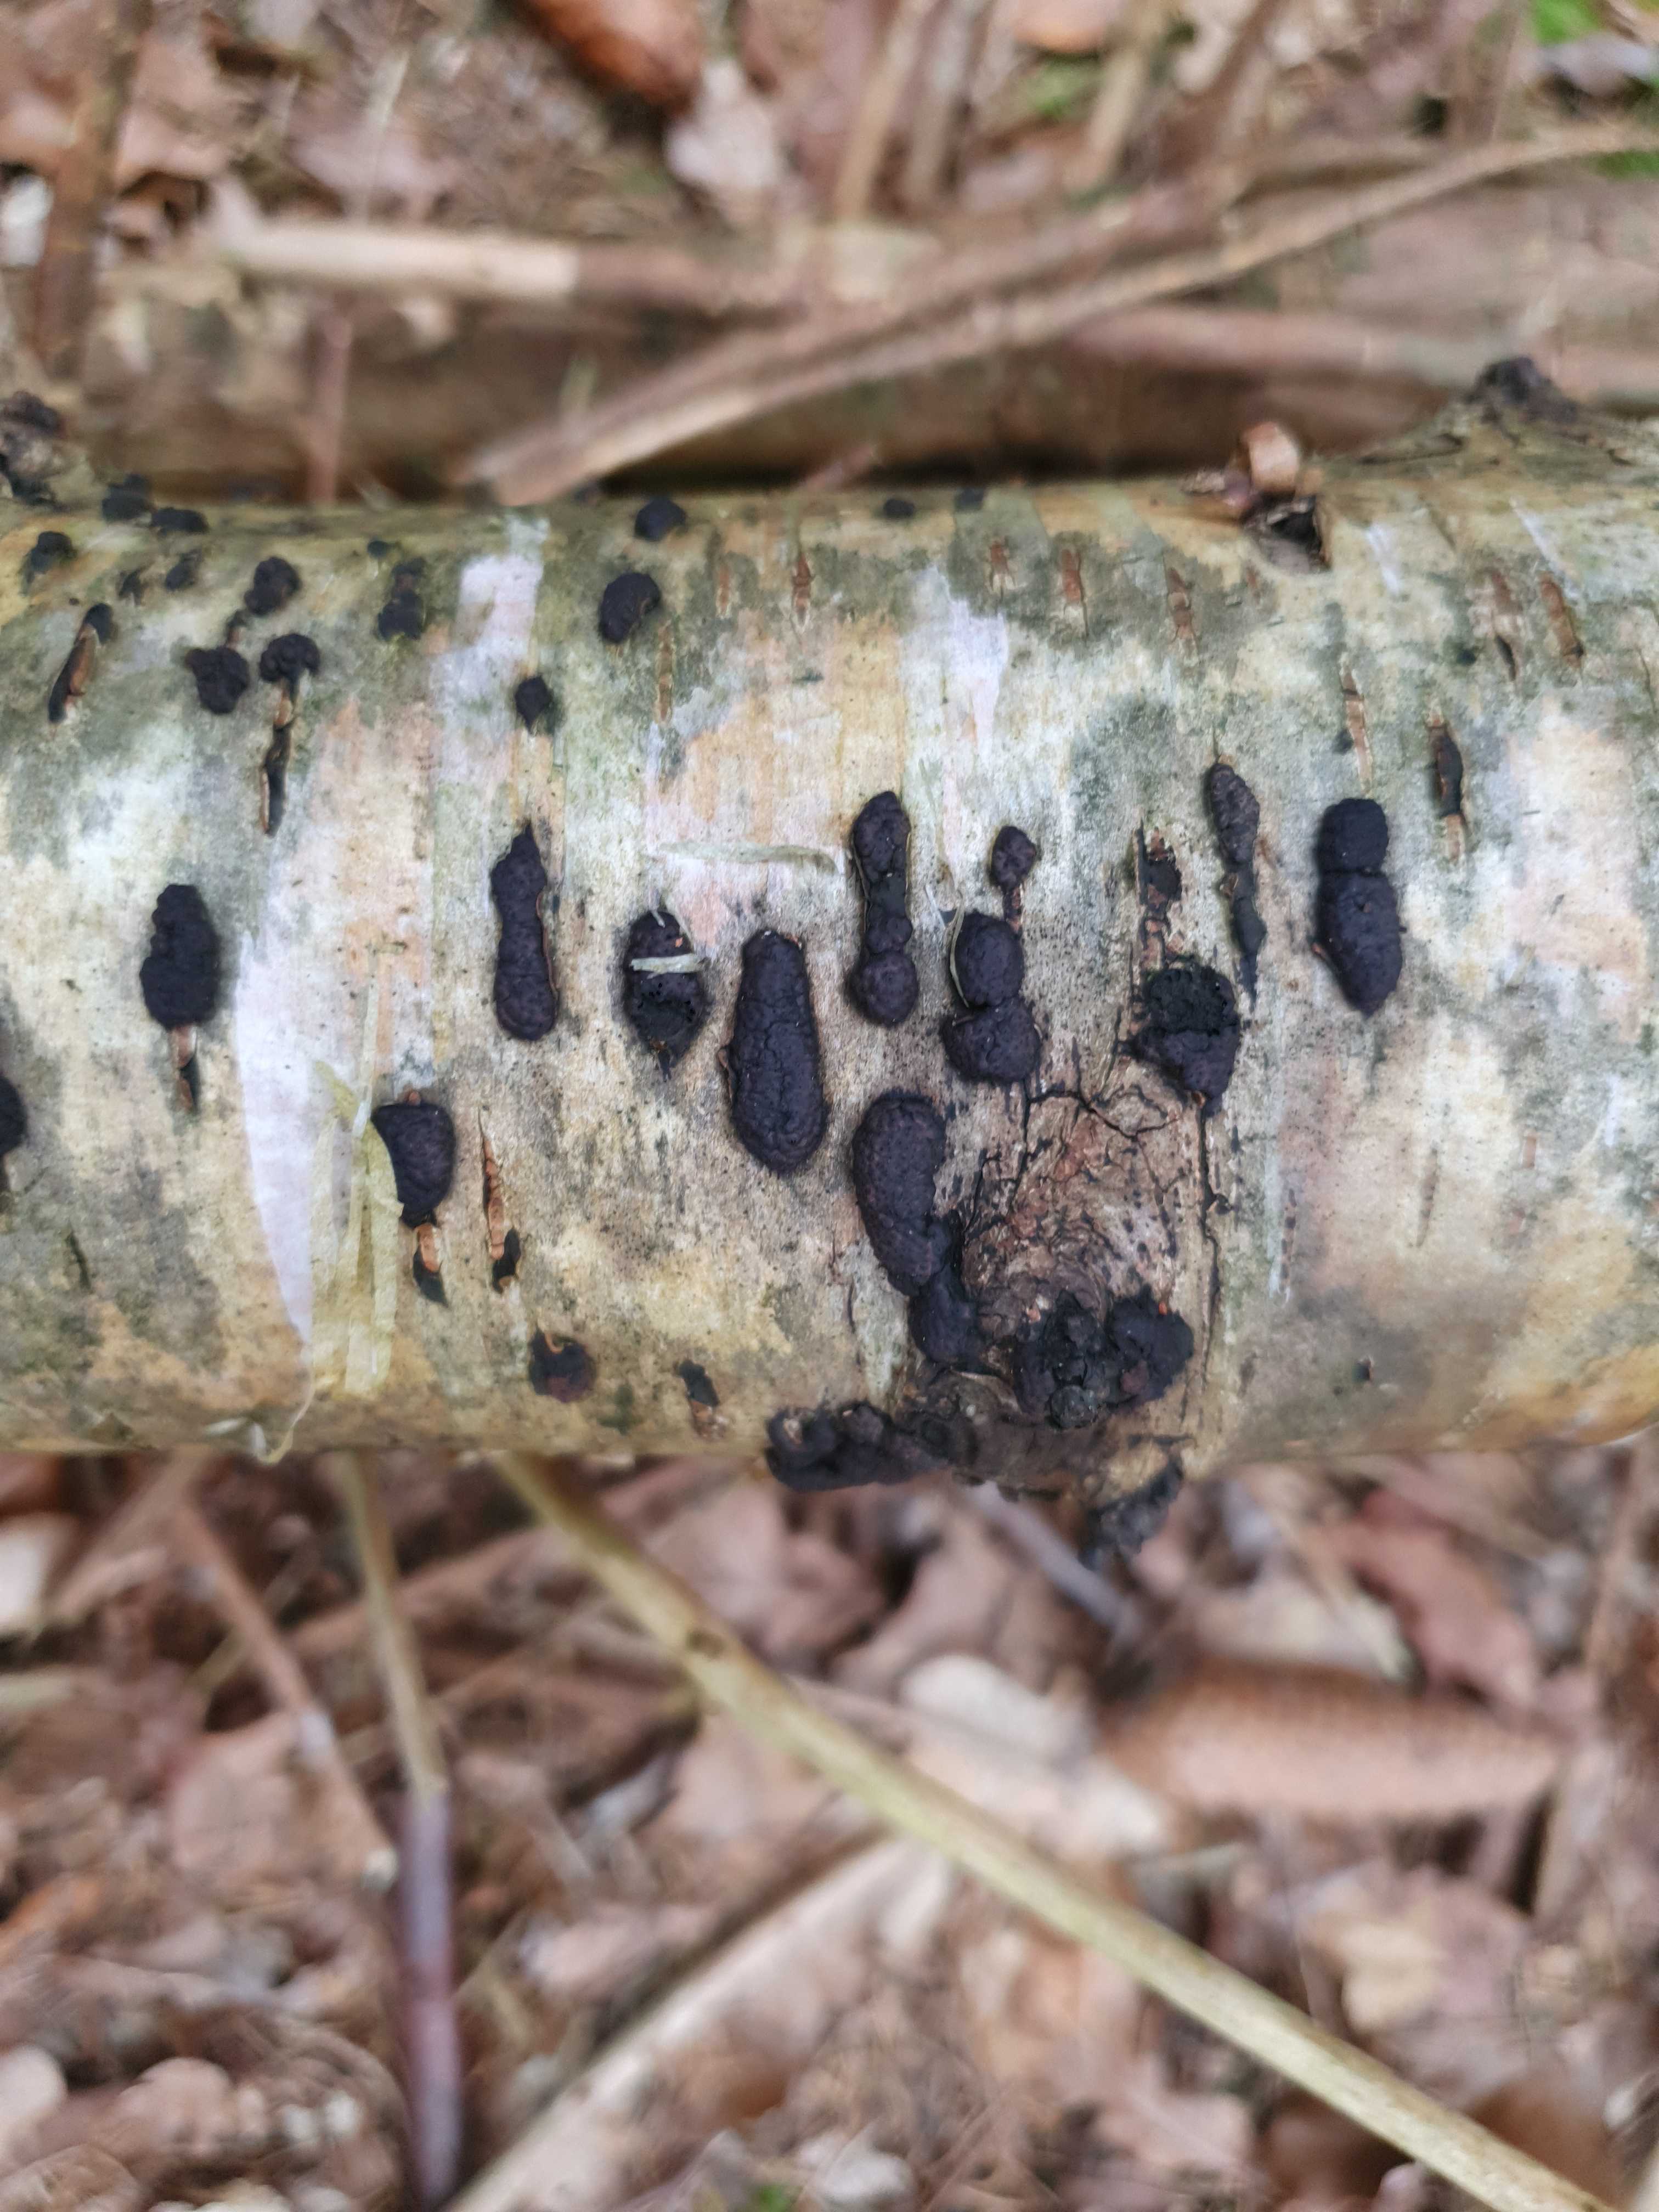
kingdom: Fungi
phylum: Ascomycota
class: Sordariomycetes
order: Xylariales
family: Hypoxylaceae
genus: Jackrogersella
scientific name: Jackrogersella multiformis
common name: foranderlig kulbær
